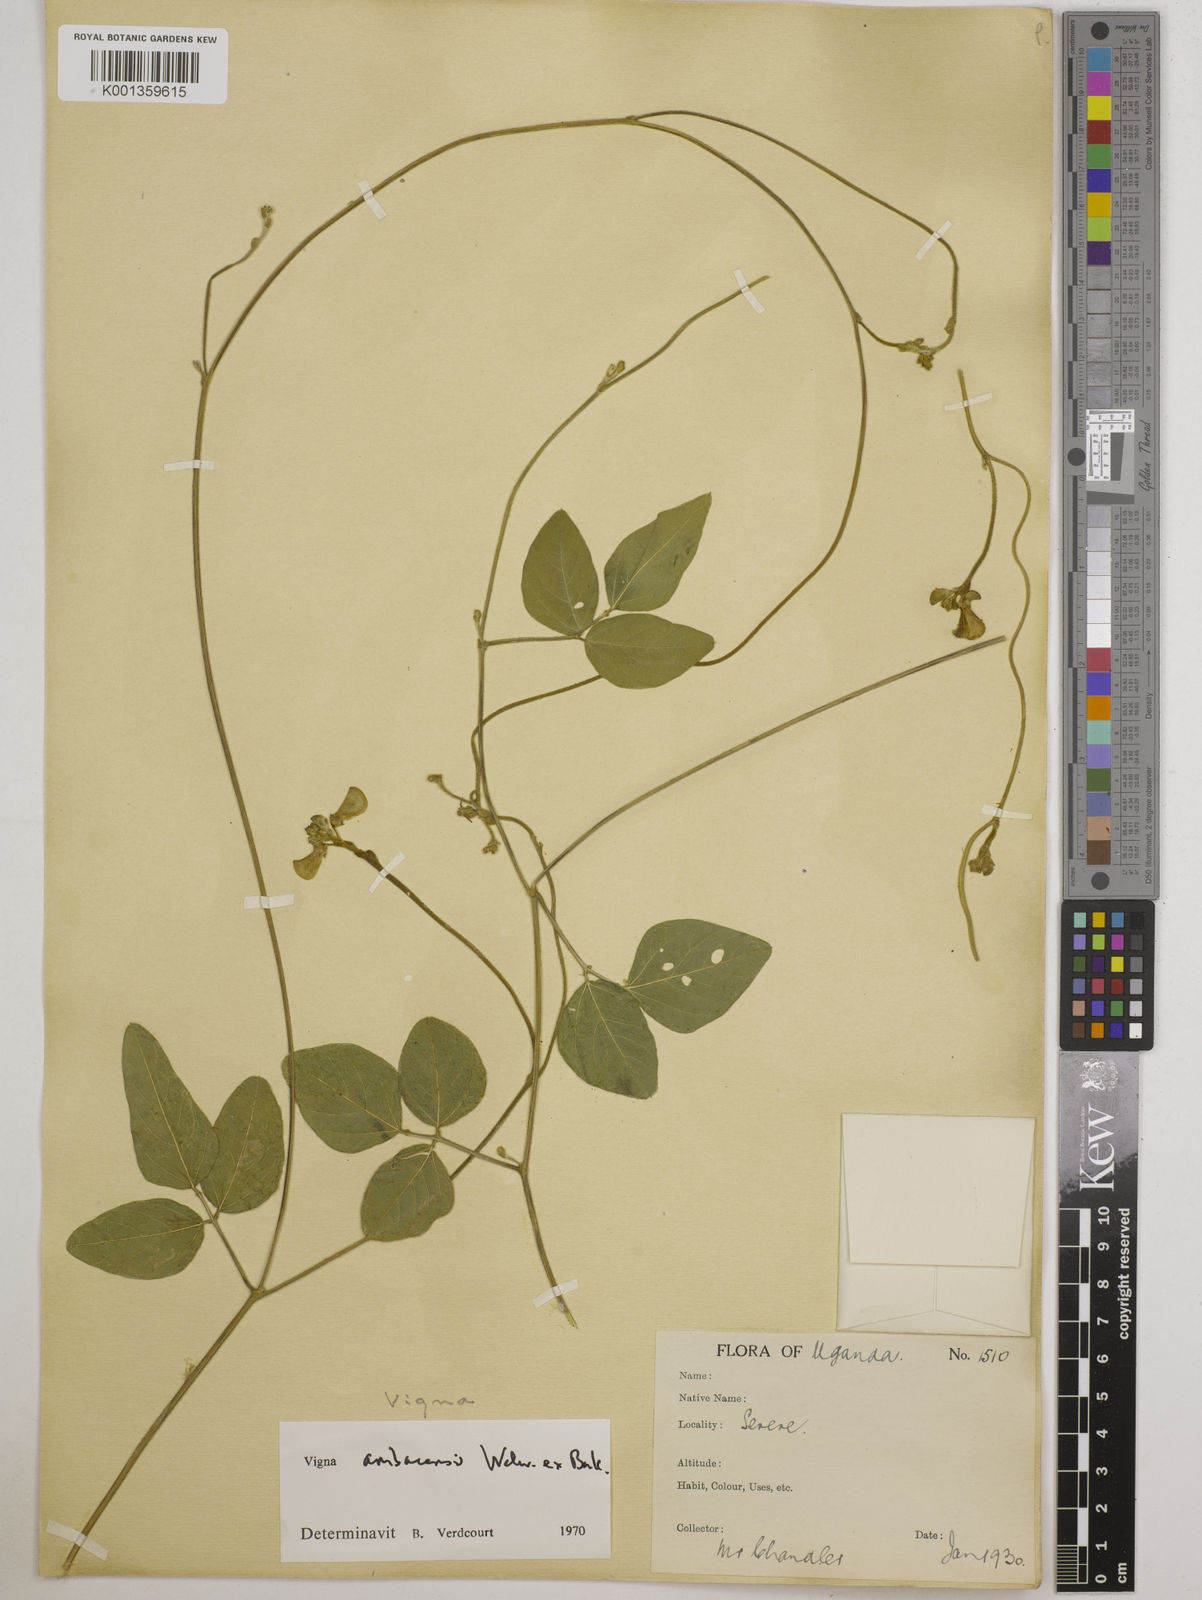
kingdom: Plantae
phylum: Tracheophyta
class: Magnoliopsida
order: Fabales
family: Fabaceae
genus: Vigna
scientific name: Vigna ambacensis
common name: Tsarkiyan zomo
